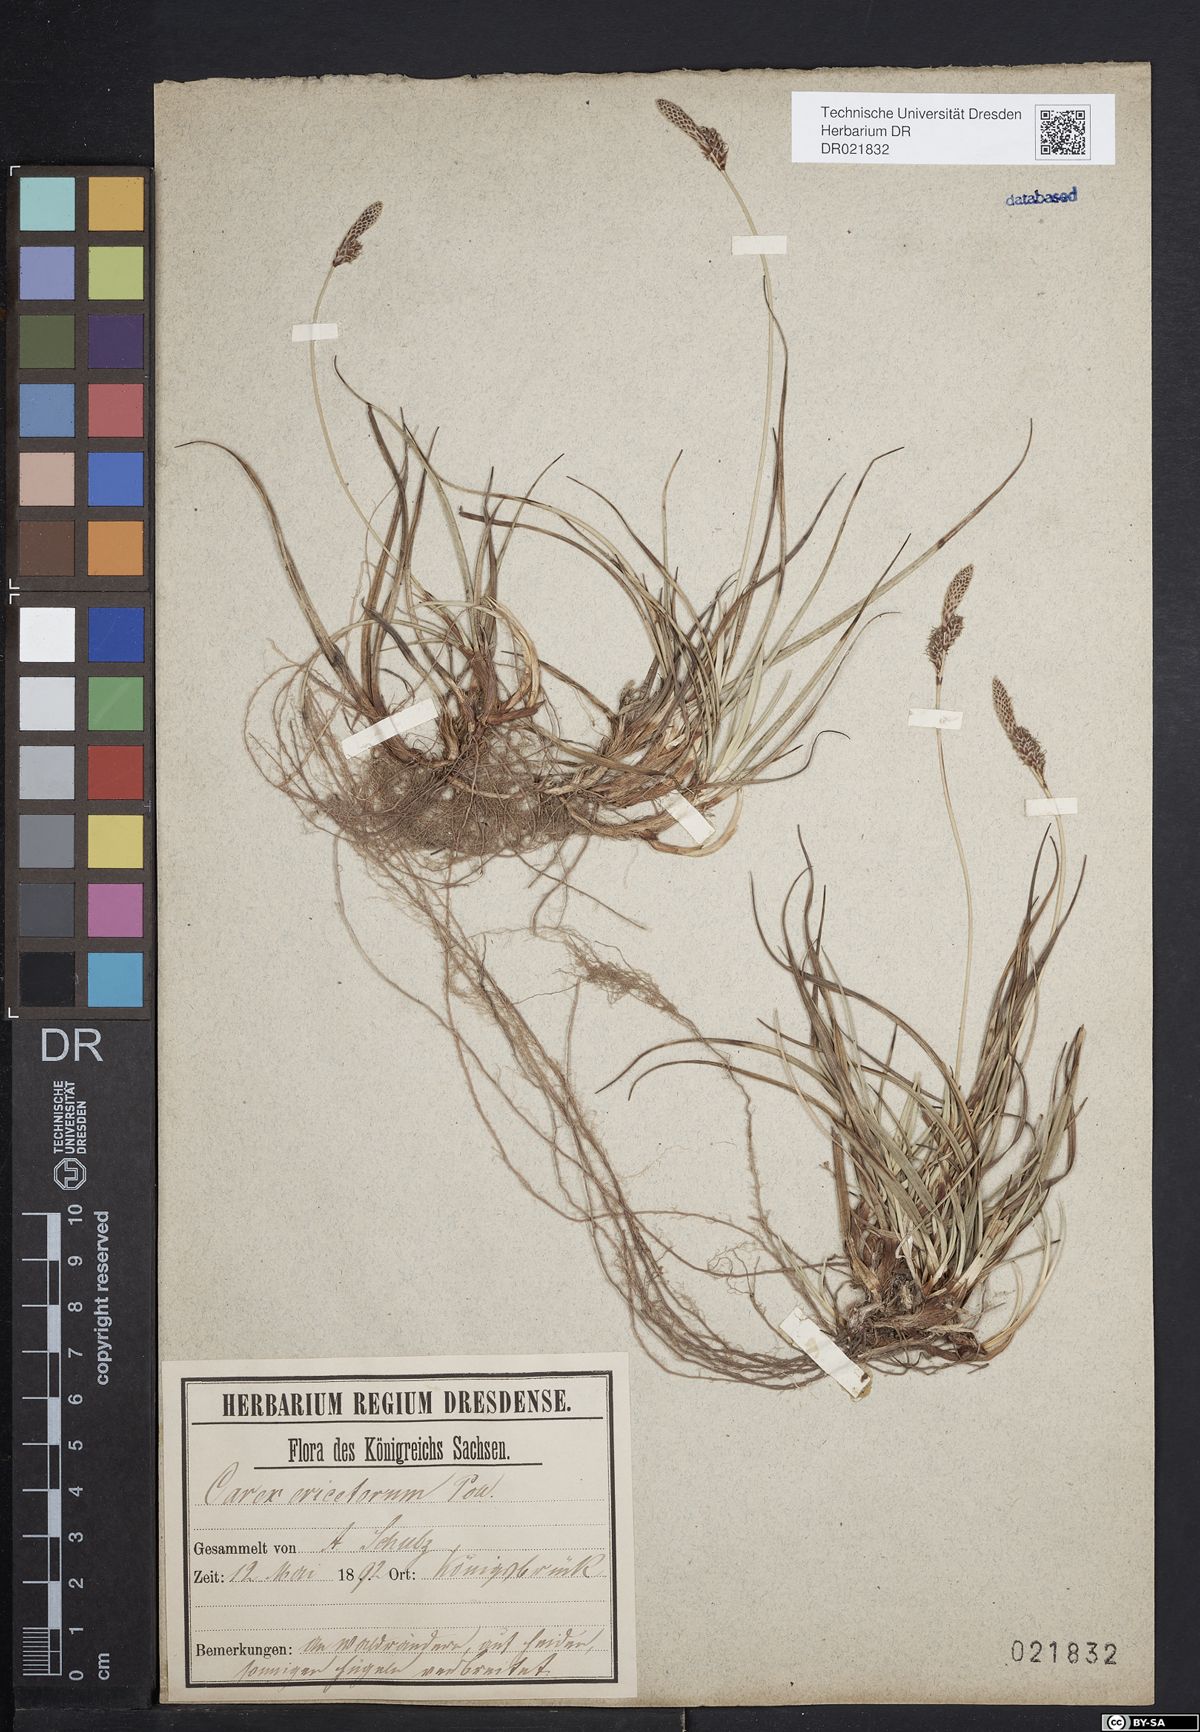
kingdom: Plantae
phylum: Tracheophyta
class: Liliopsida
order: Poales
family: Cyperaceae
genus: Carex
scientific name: Carex ericetorum
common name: Rare spring-sedge
